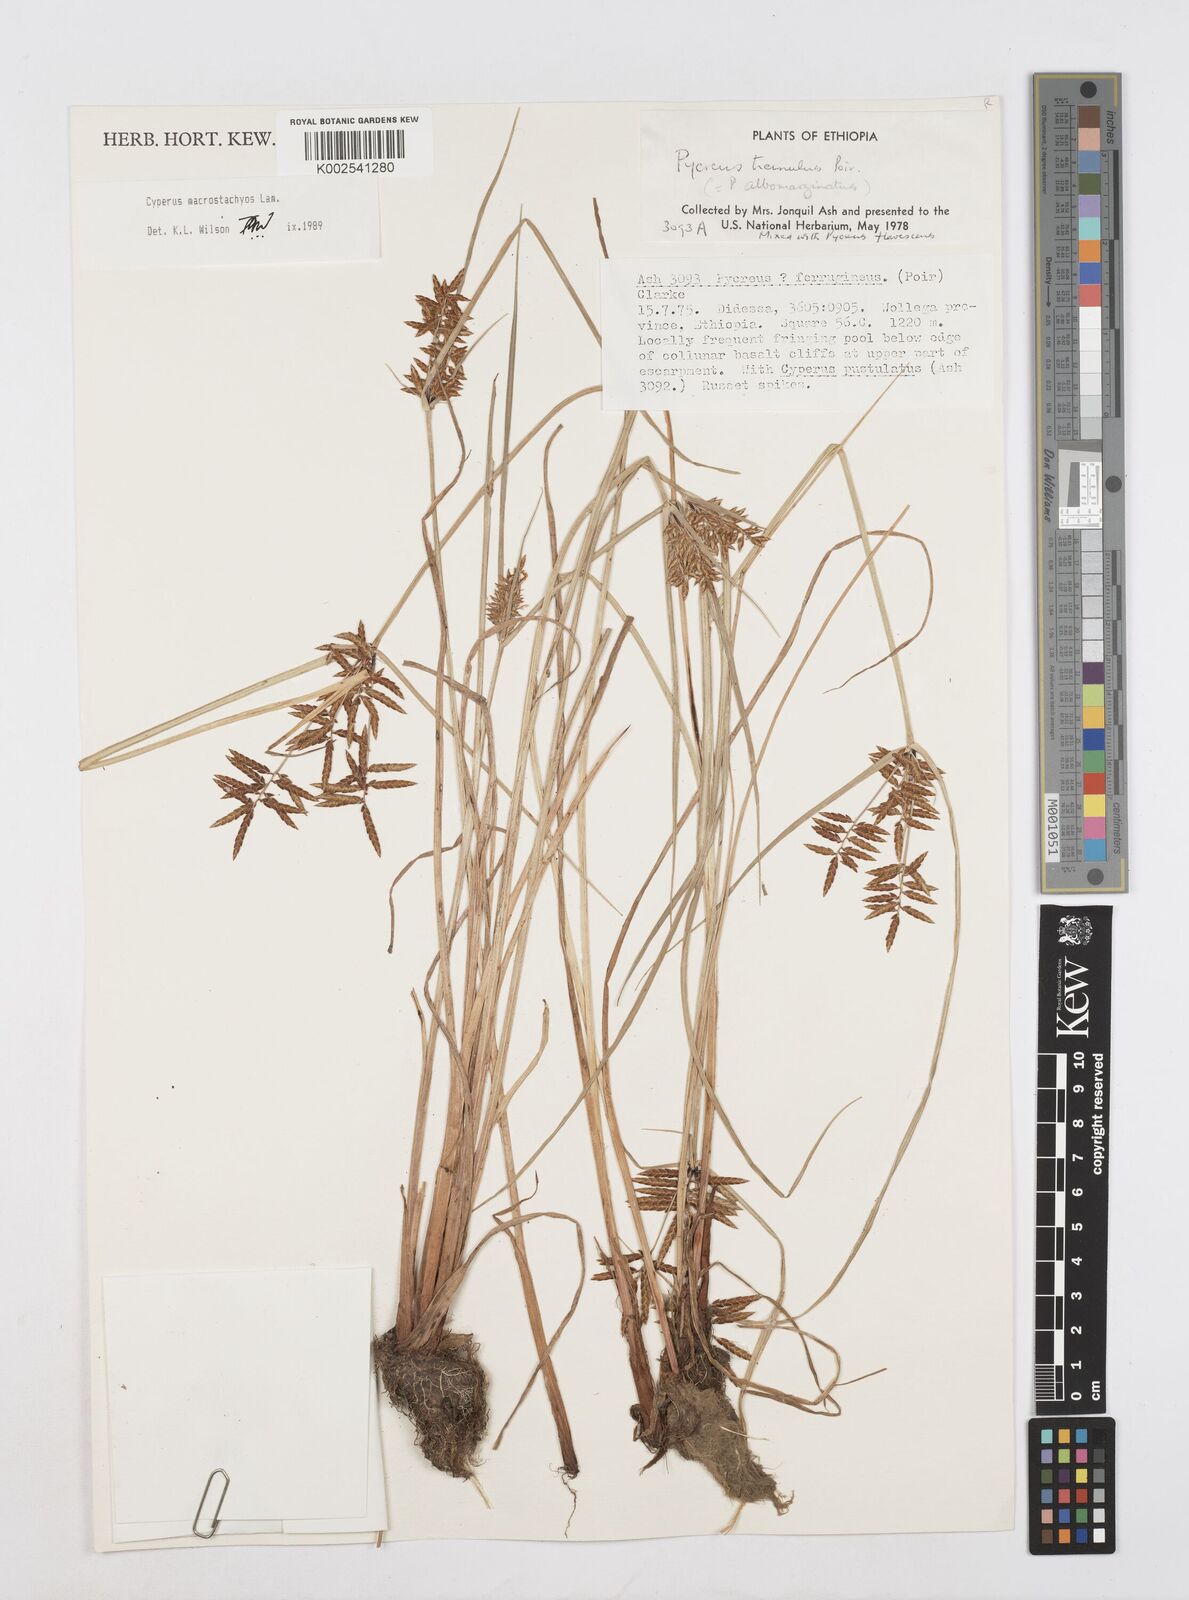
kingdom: Plantae
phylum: Tracheophyta
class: Liliopsida
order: Poales
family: Cyperaceae
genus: Cyperus
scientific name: Cyperus macrostachyos
